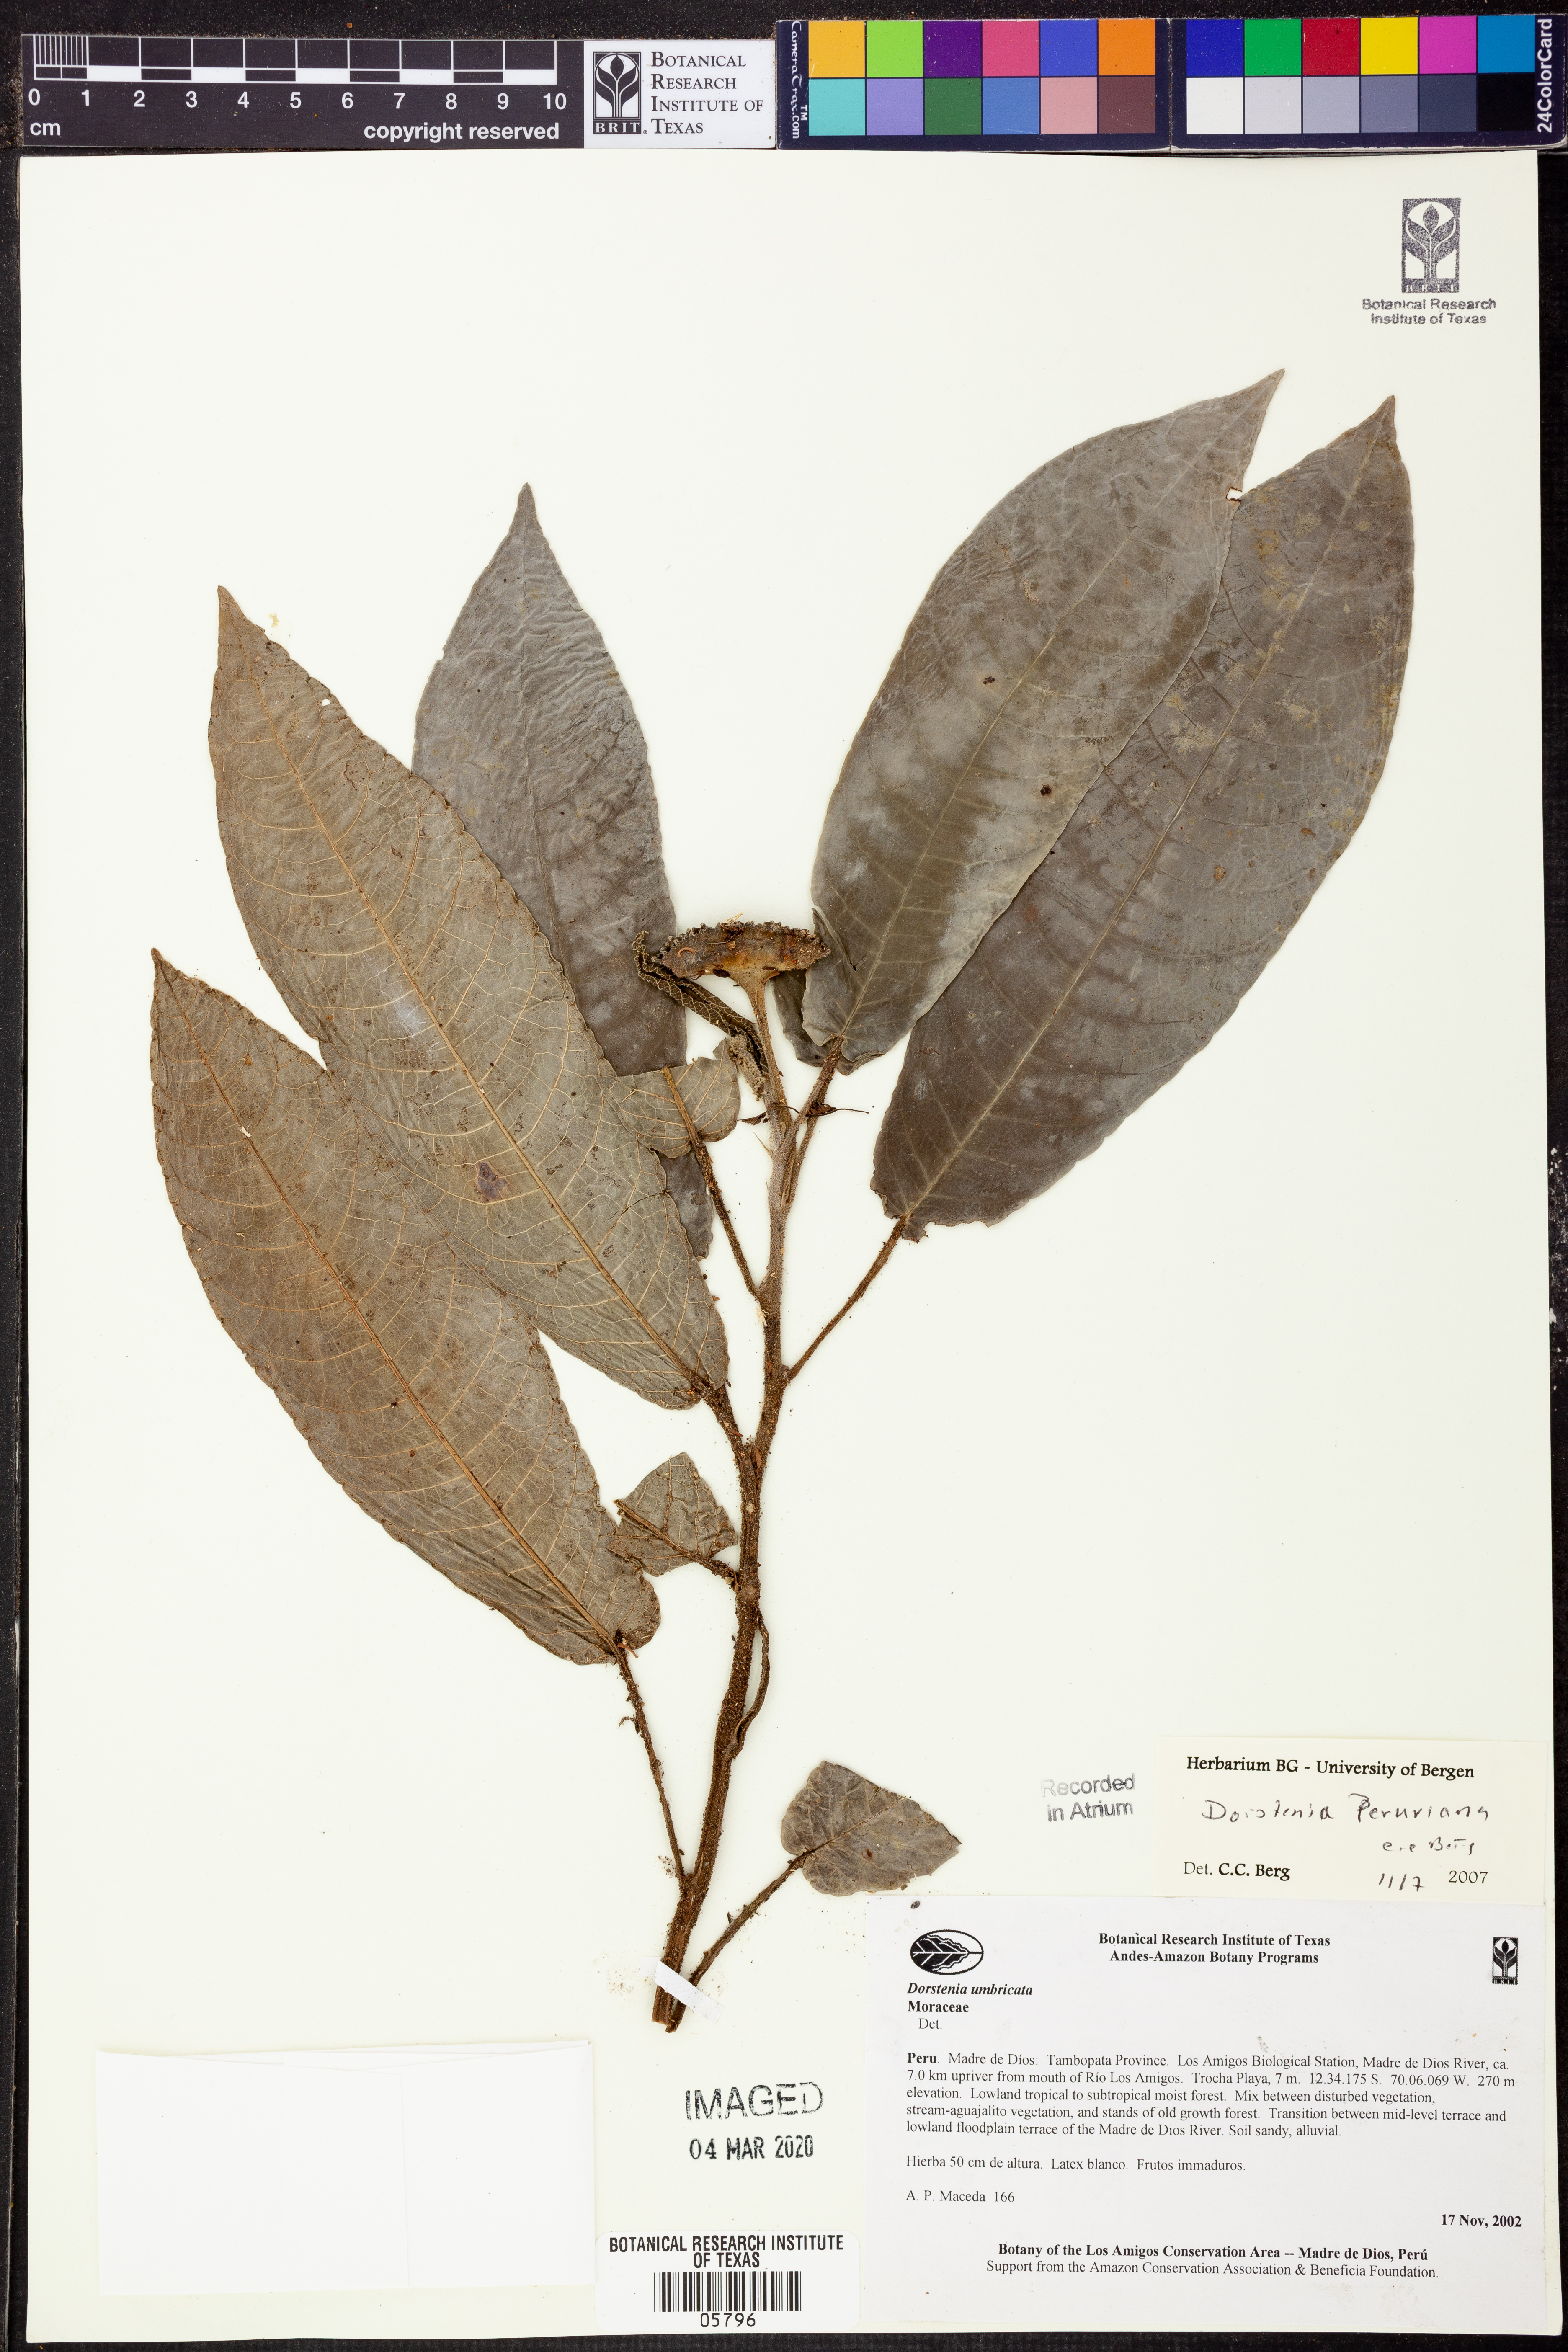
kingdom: Plantae
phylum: Tracheophyta
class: Magnoliopsida
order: Rosales
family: Moraceae
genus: Dorstenia
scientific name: Dorstenia
